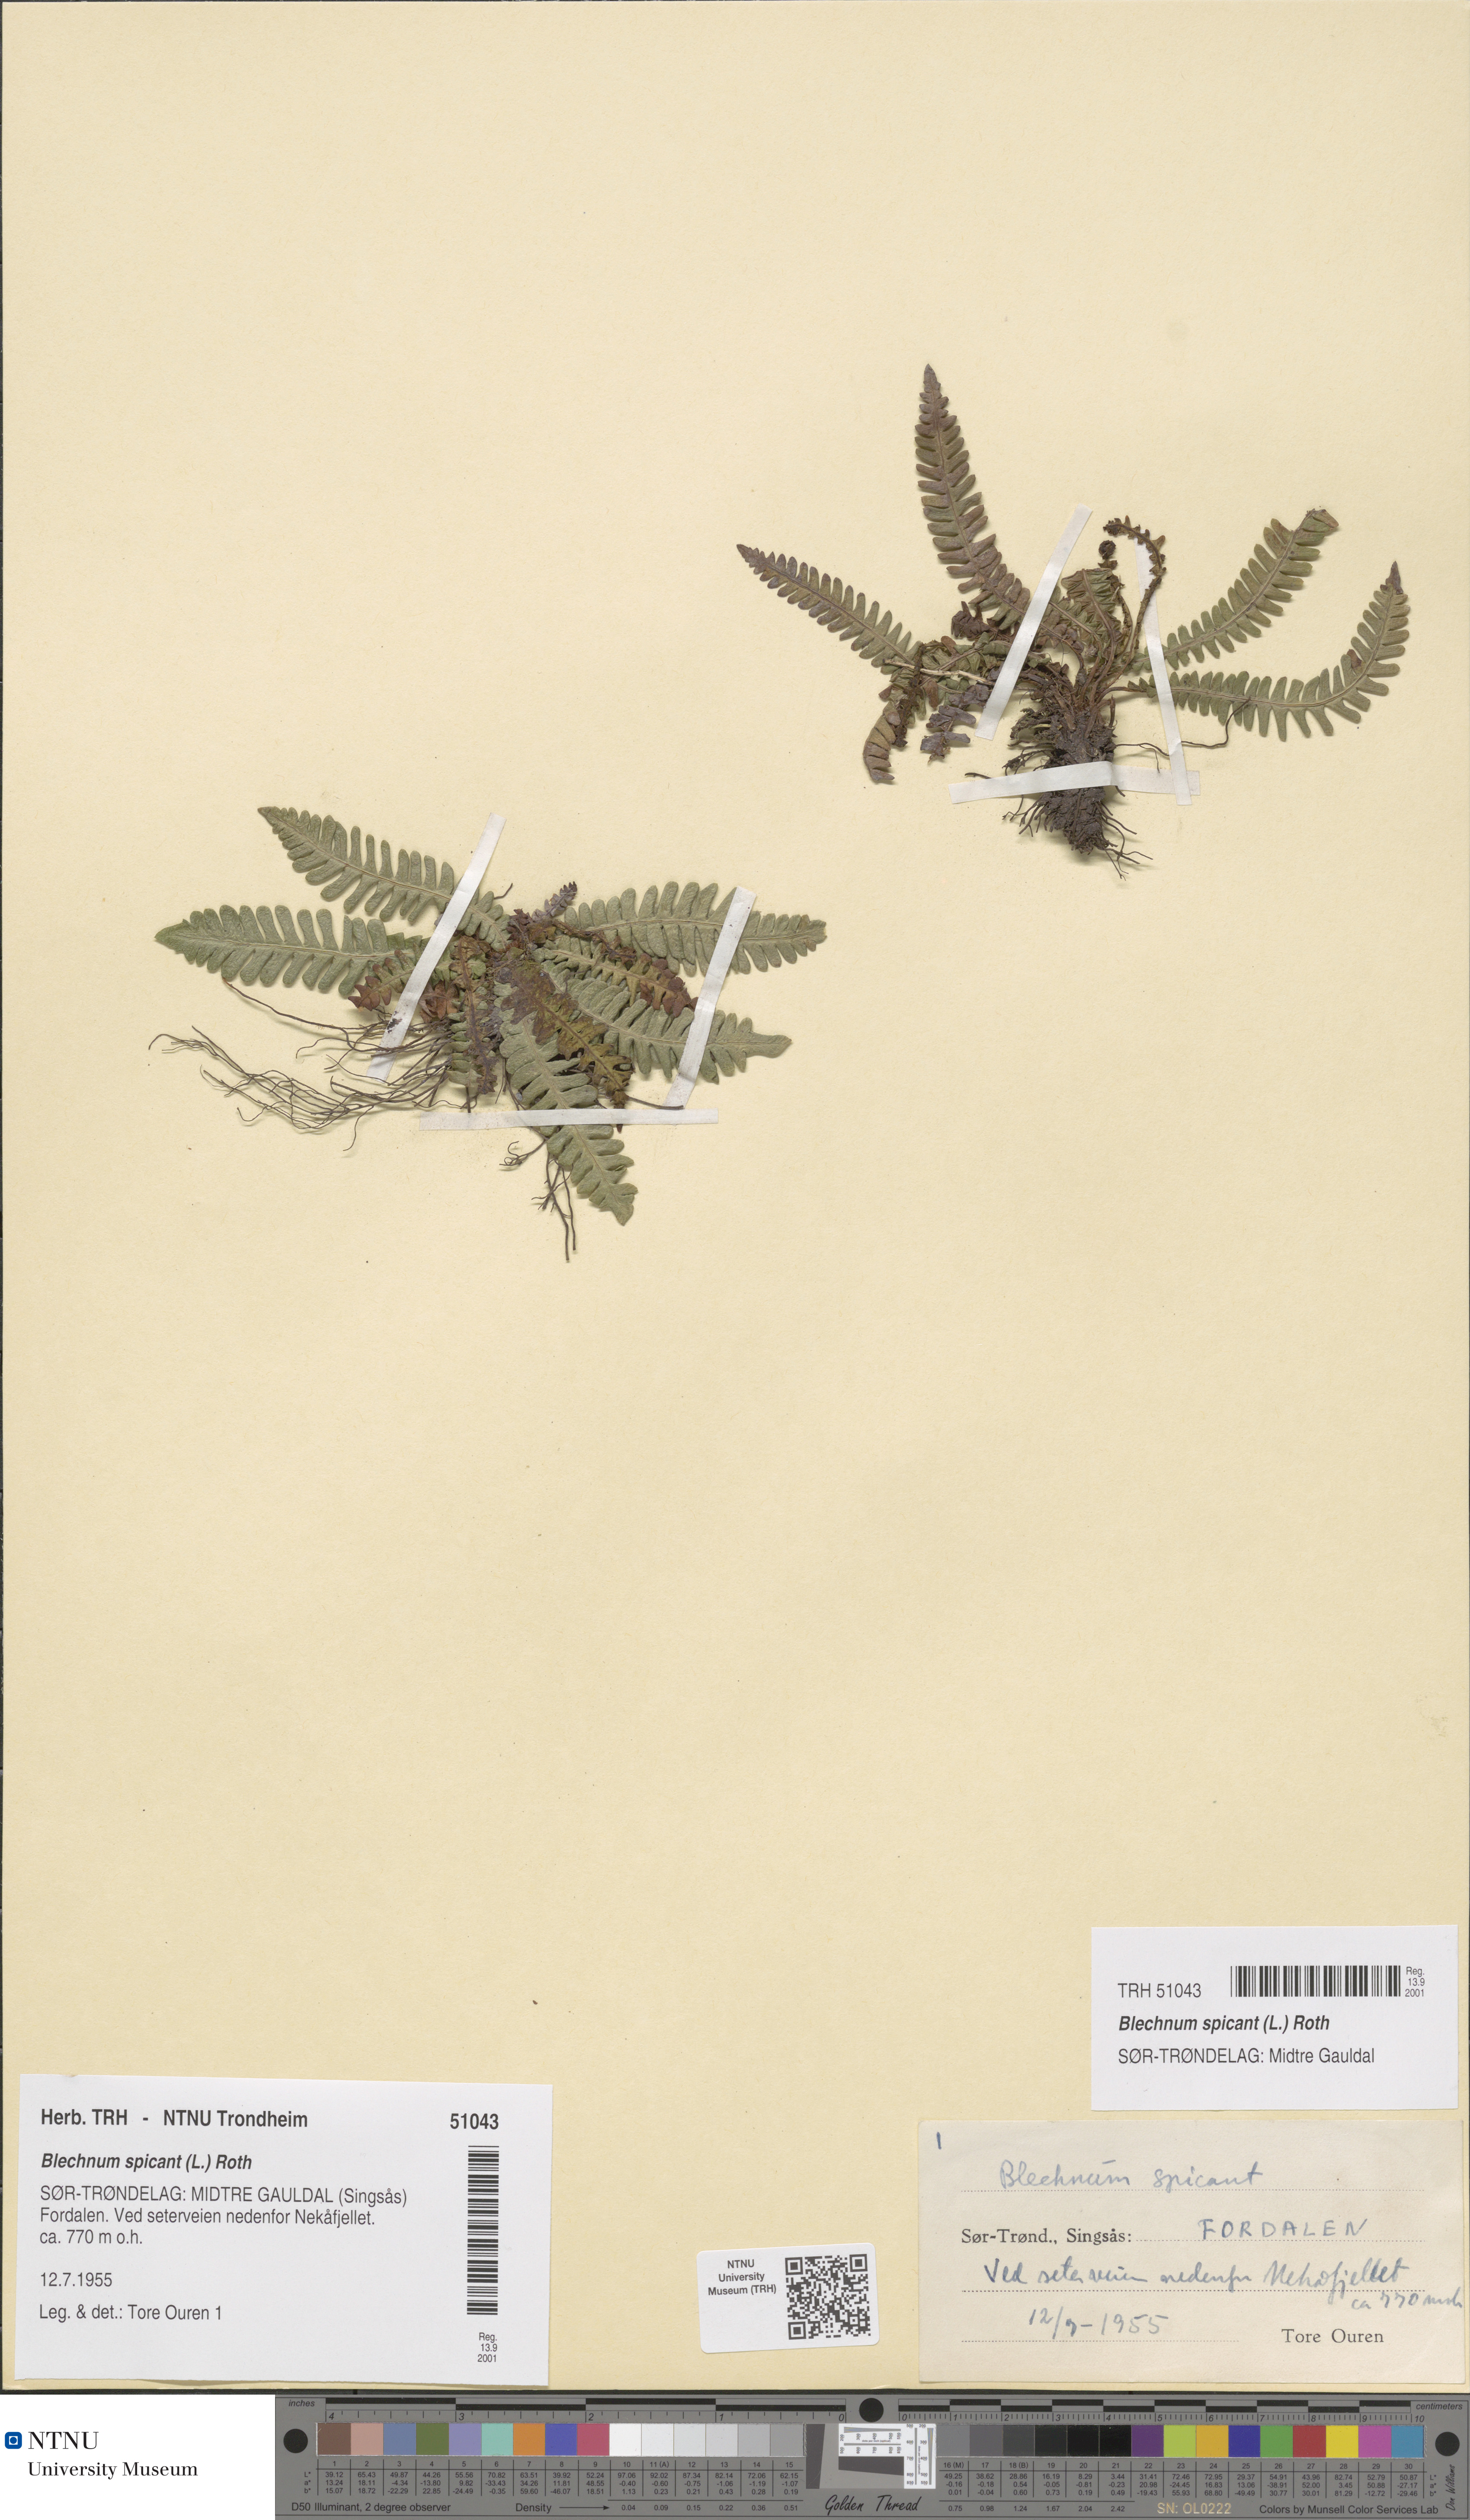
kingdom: Plantae
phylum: Tracheophyta
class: Polypodiopsida
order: Polypodiales
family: Blechnaceae
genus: Struthiopteris
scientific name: Struthiopteris spicant
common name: Deer fern
